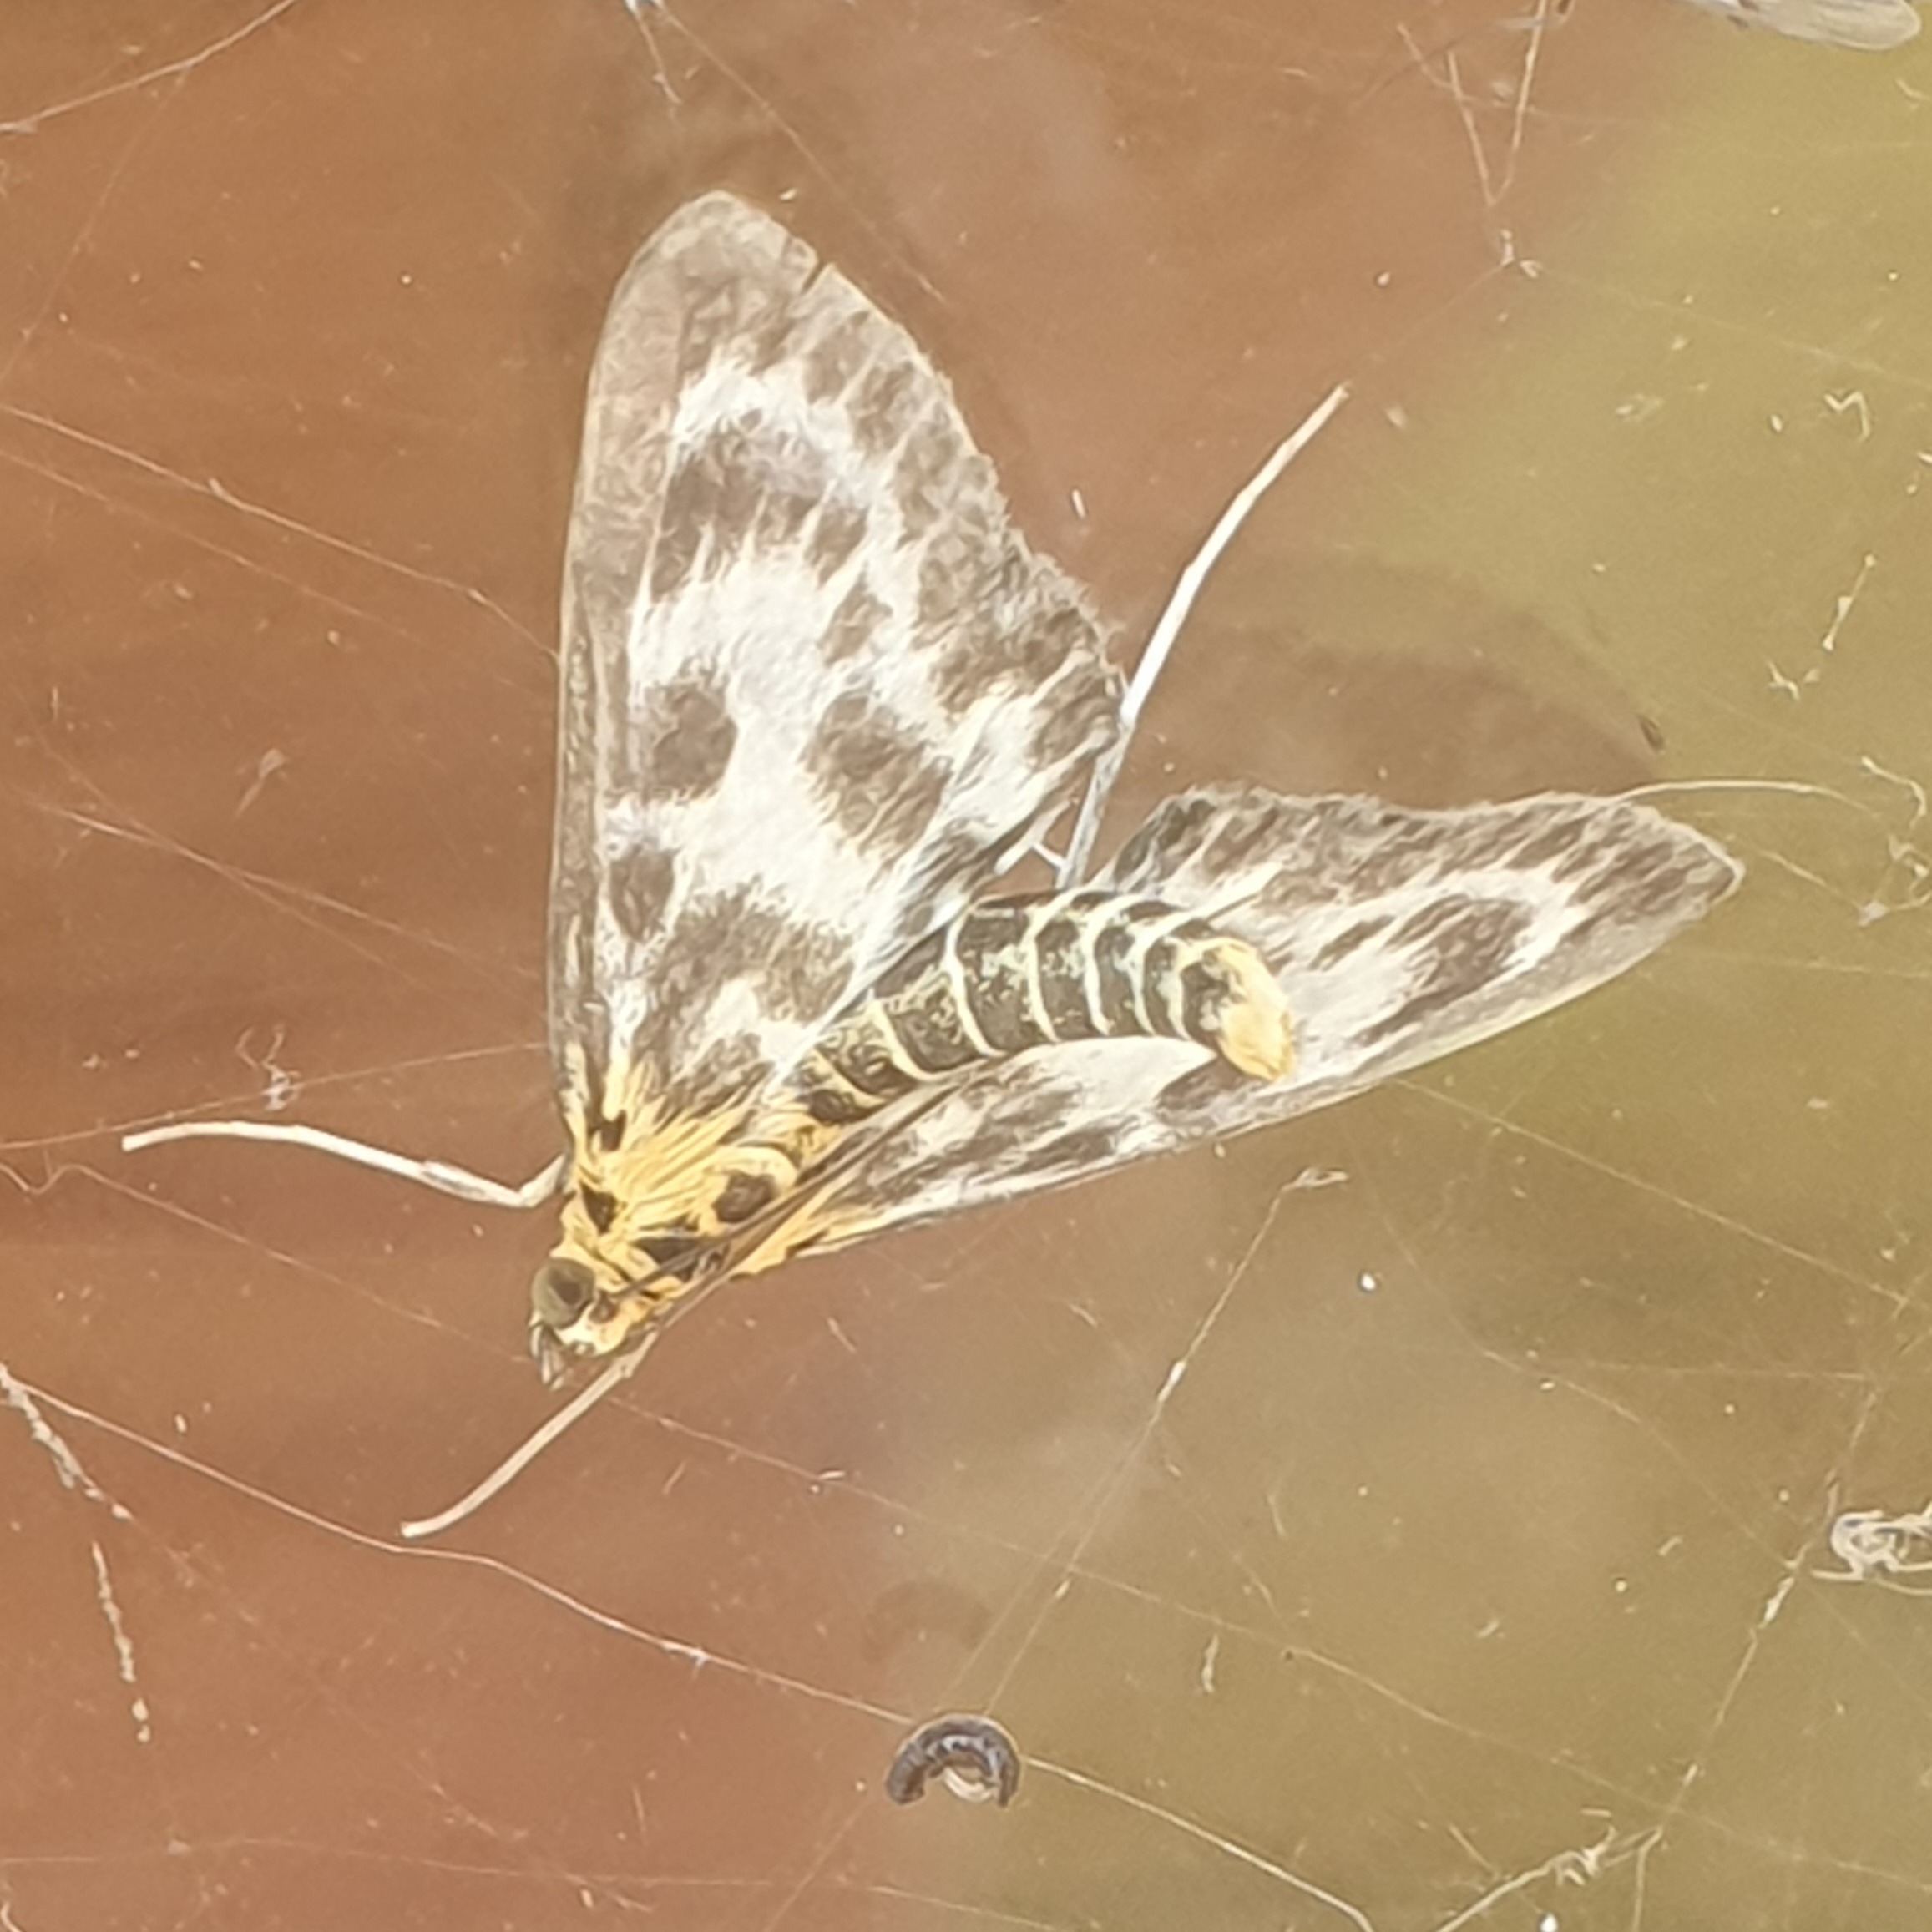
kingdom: Animalia
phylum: Arthropoda
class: Insecta
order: Lepidoptera
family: Crambidae
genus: Anania
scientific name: Anania hortulata
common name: Nældehalvmøl
